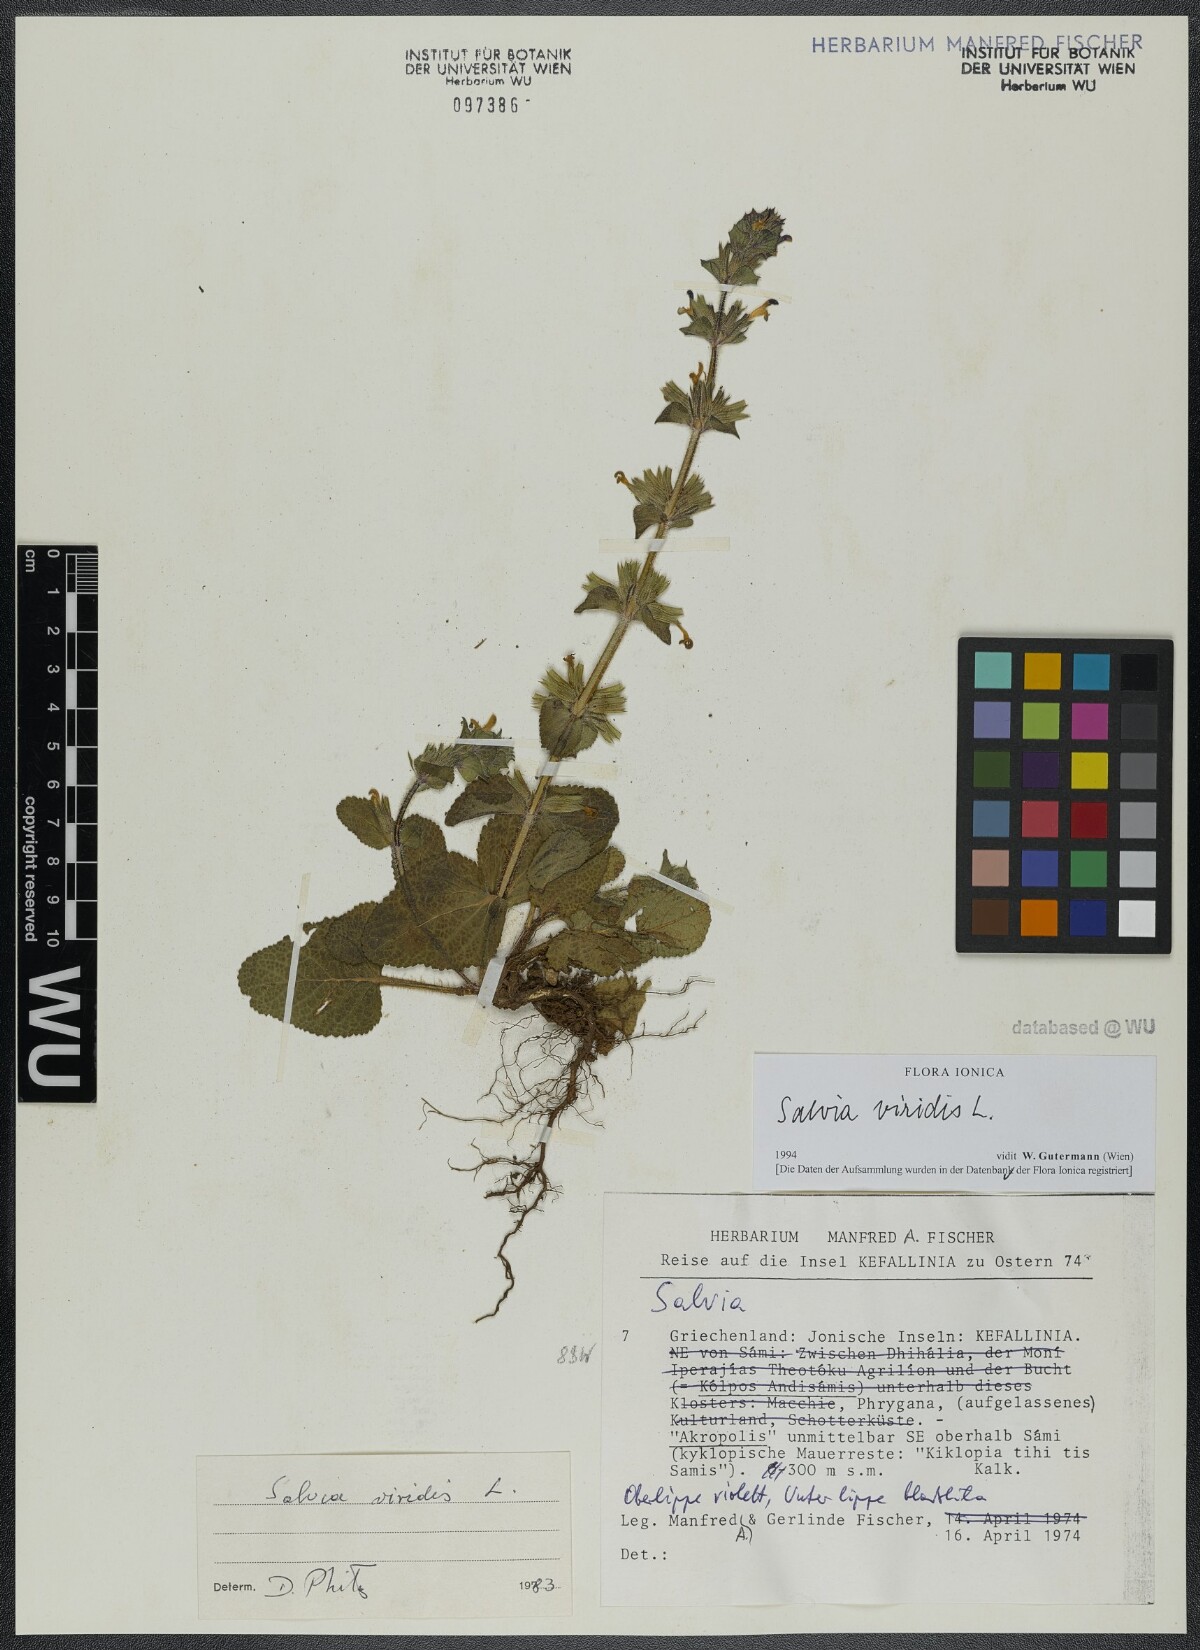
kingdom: Plantae
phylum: Tracheophyta
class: Magnoliopsida
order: Lamiales
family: Lamiaceae
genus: Salvia
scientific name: Salvia viridis
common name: Annual clary
